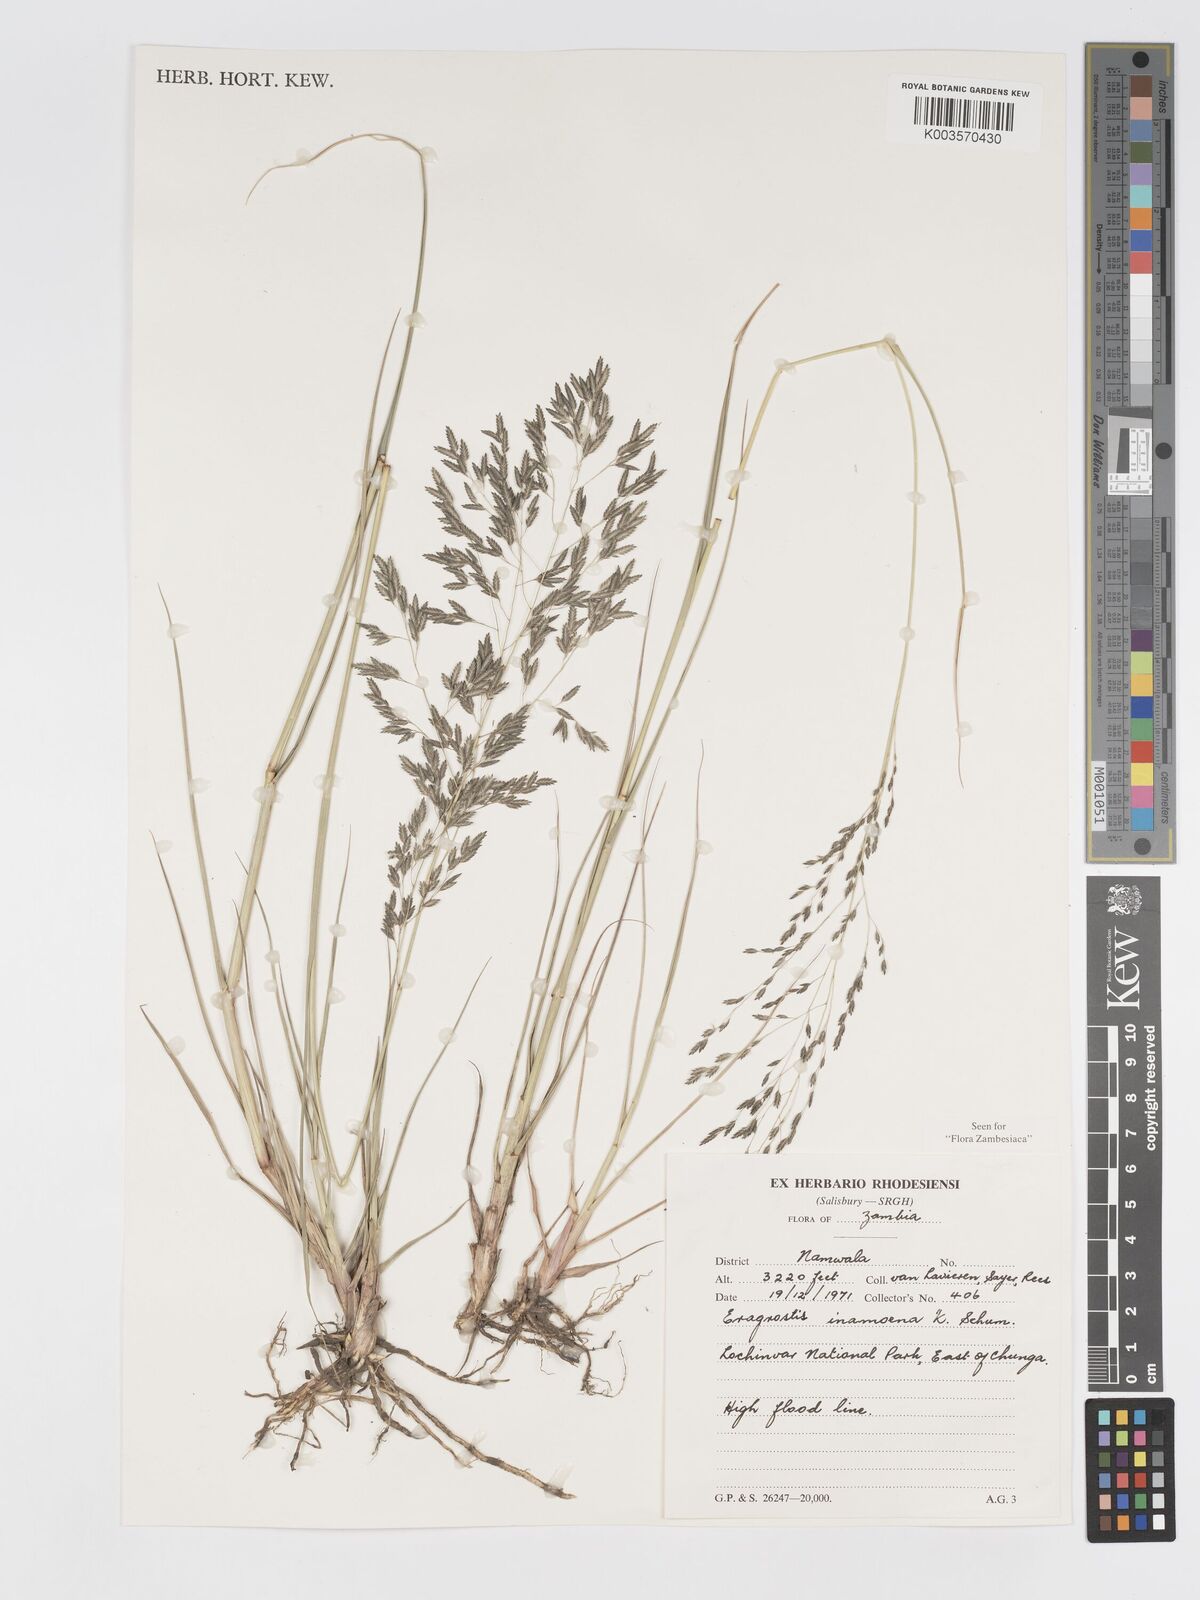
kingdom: Plantae
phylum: Tracheophyta
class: Liliopsida
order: Poales
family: Poaceae
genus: Eragrostis
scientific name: Eragrostis inamoena
